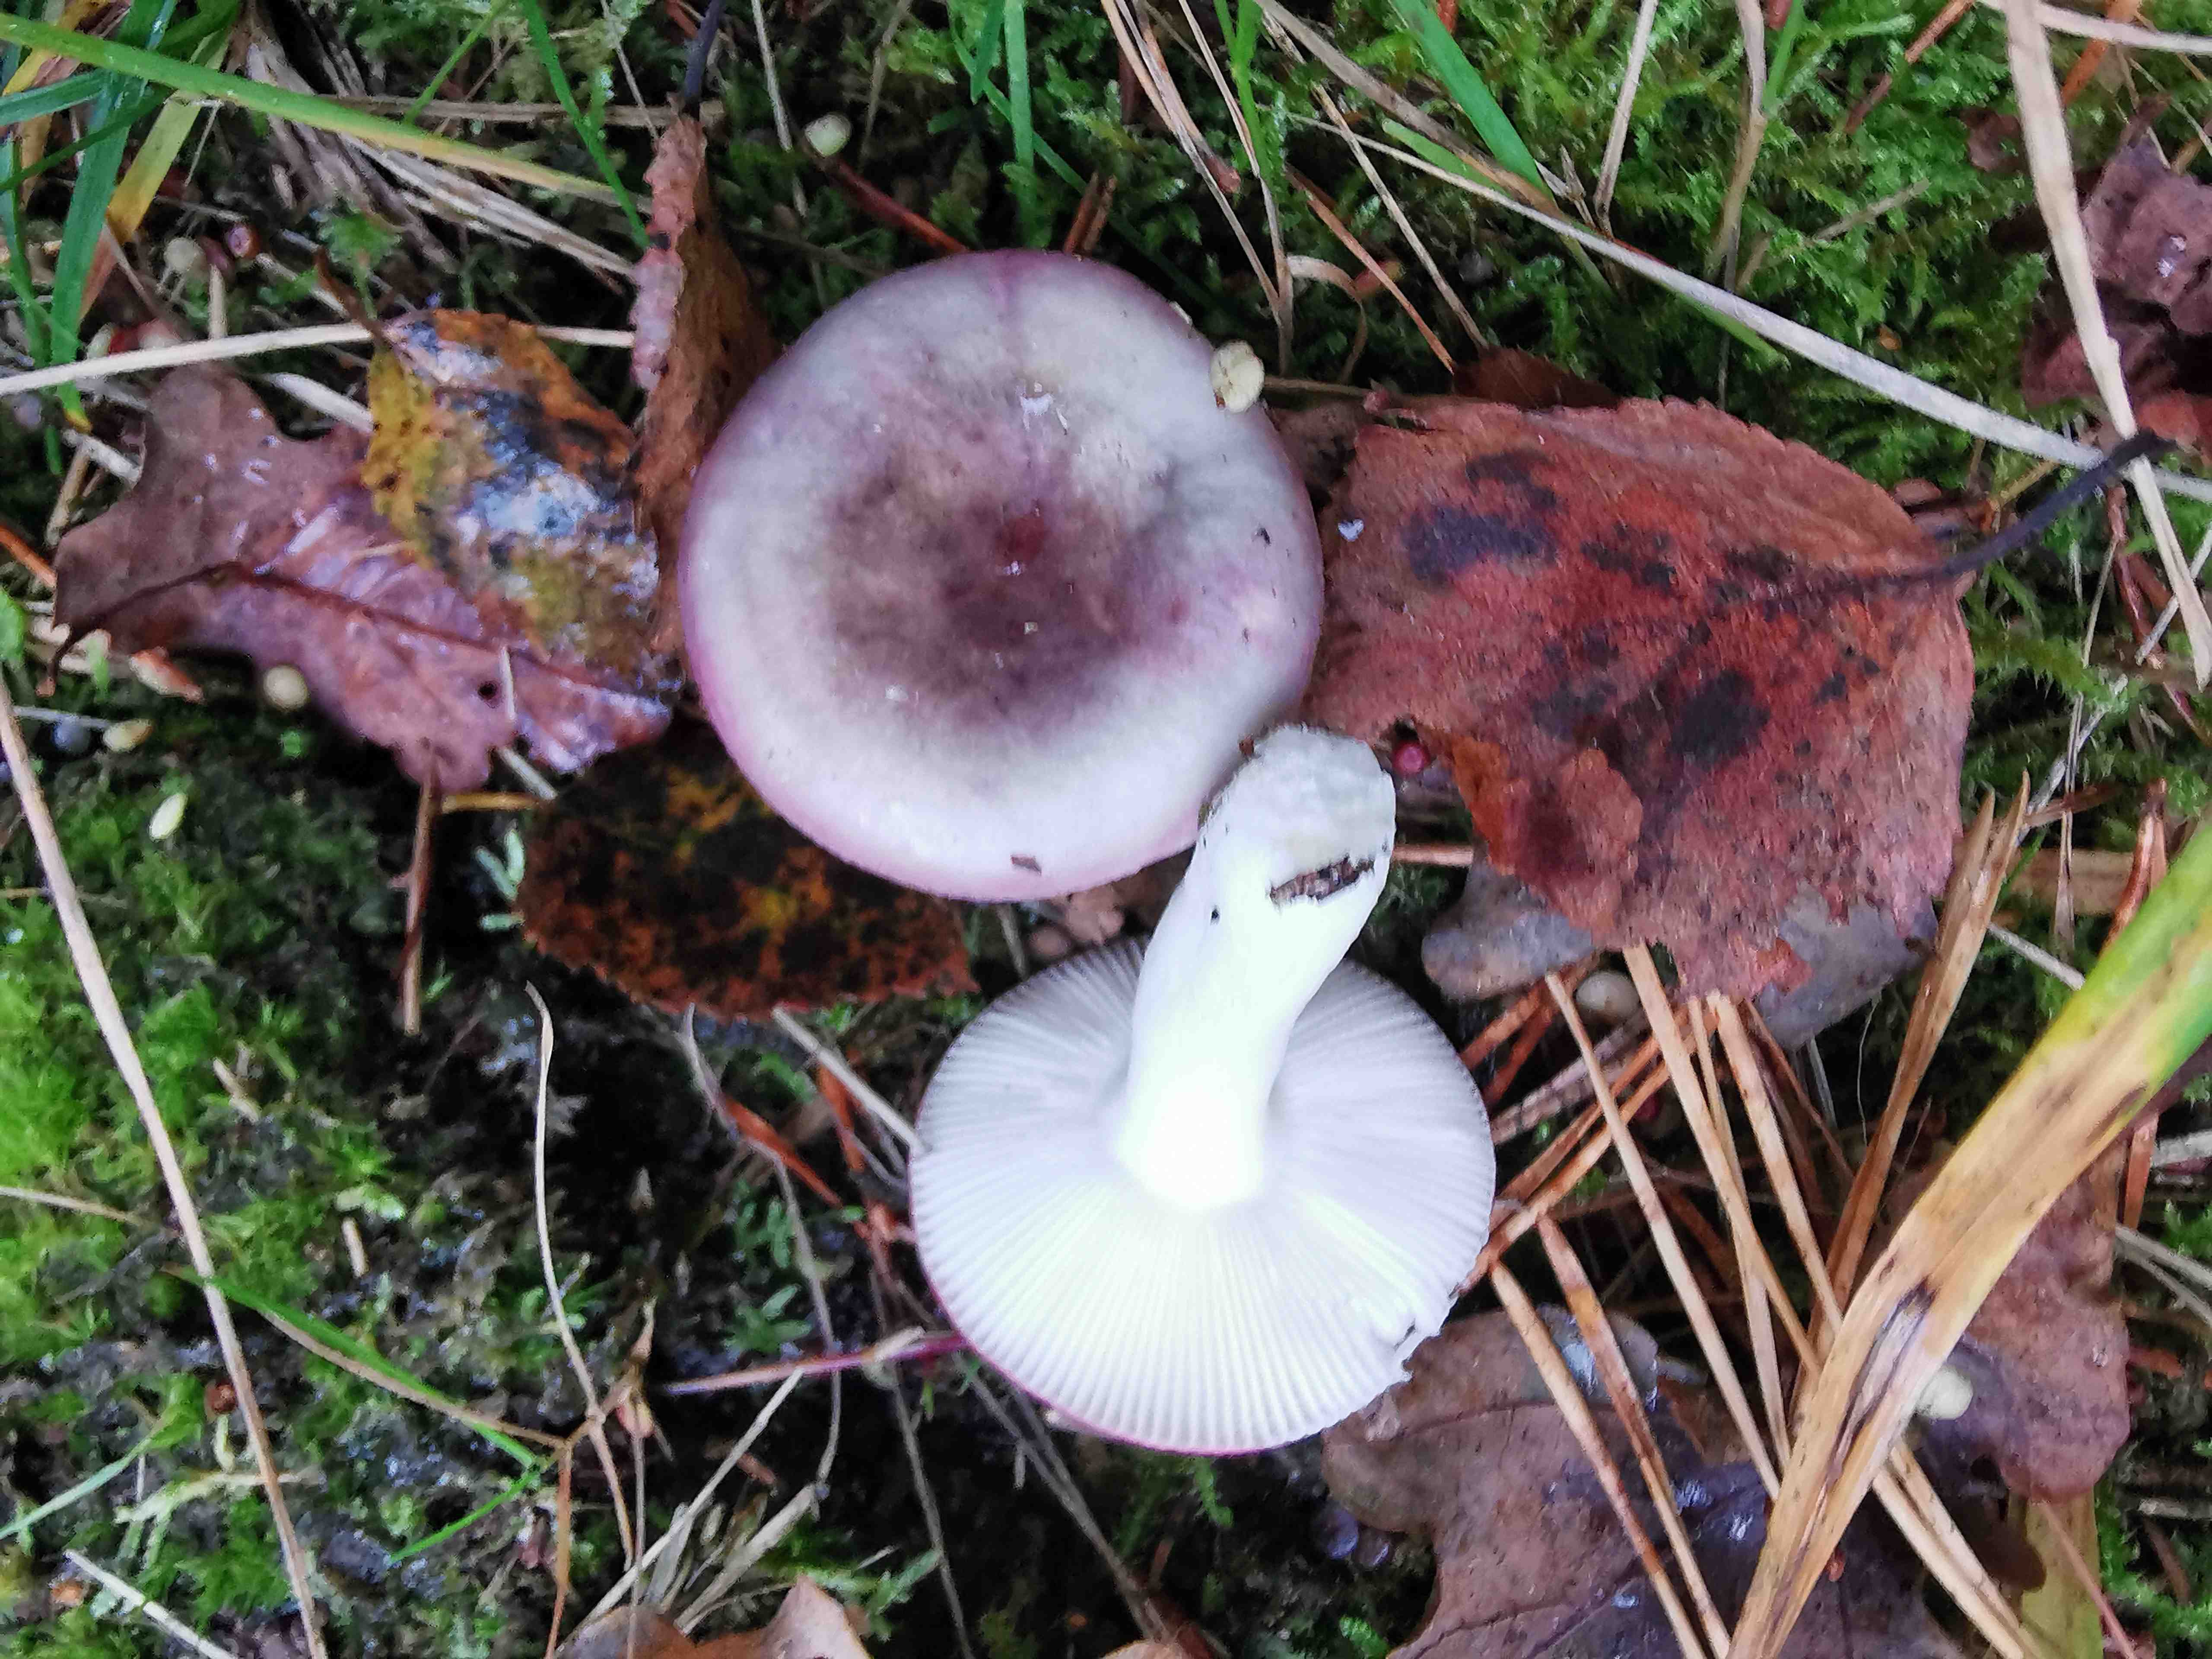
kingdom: Fungi
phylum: Basidiomycota
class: Agaricomycetes
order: Russulales
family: Russulaceae
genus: Russula
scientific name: Russula fragilis
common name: savbladet skørhat
